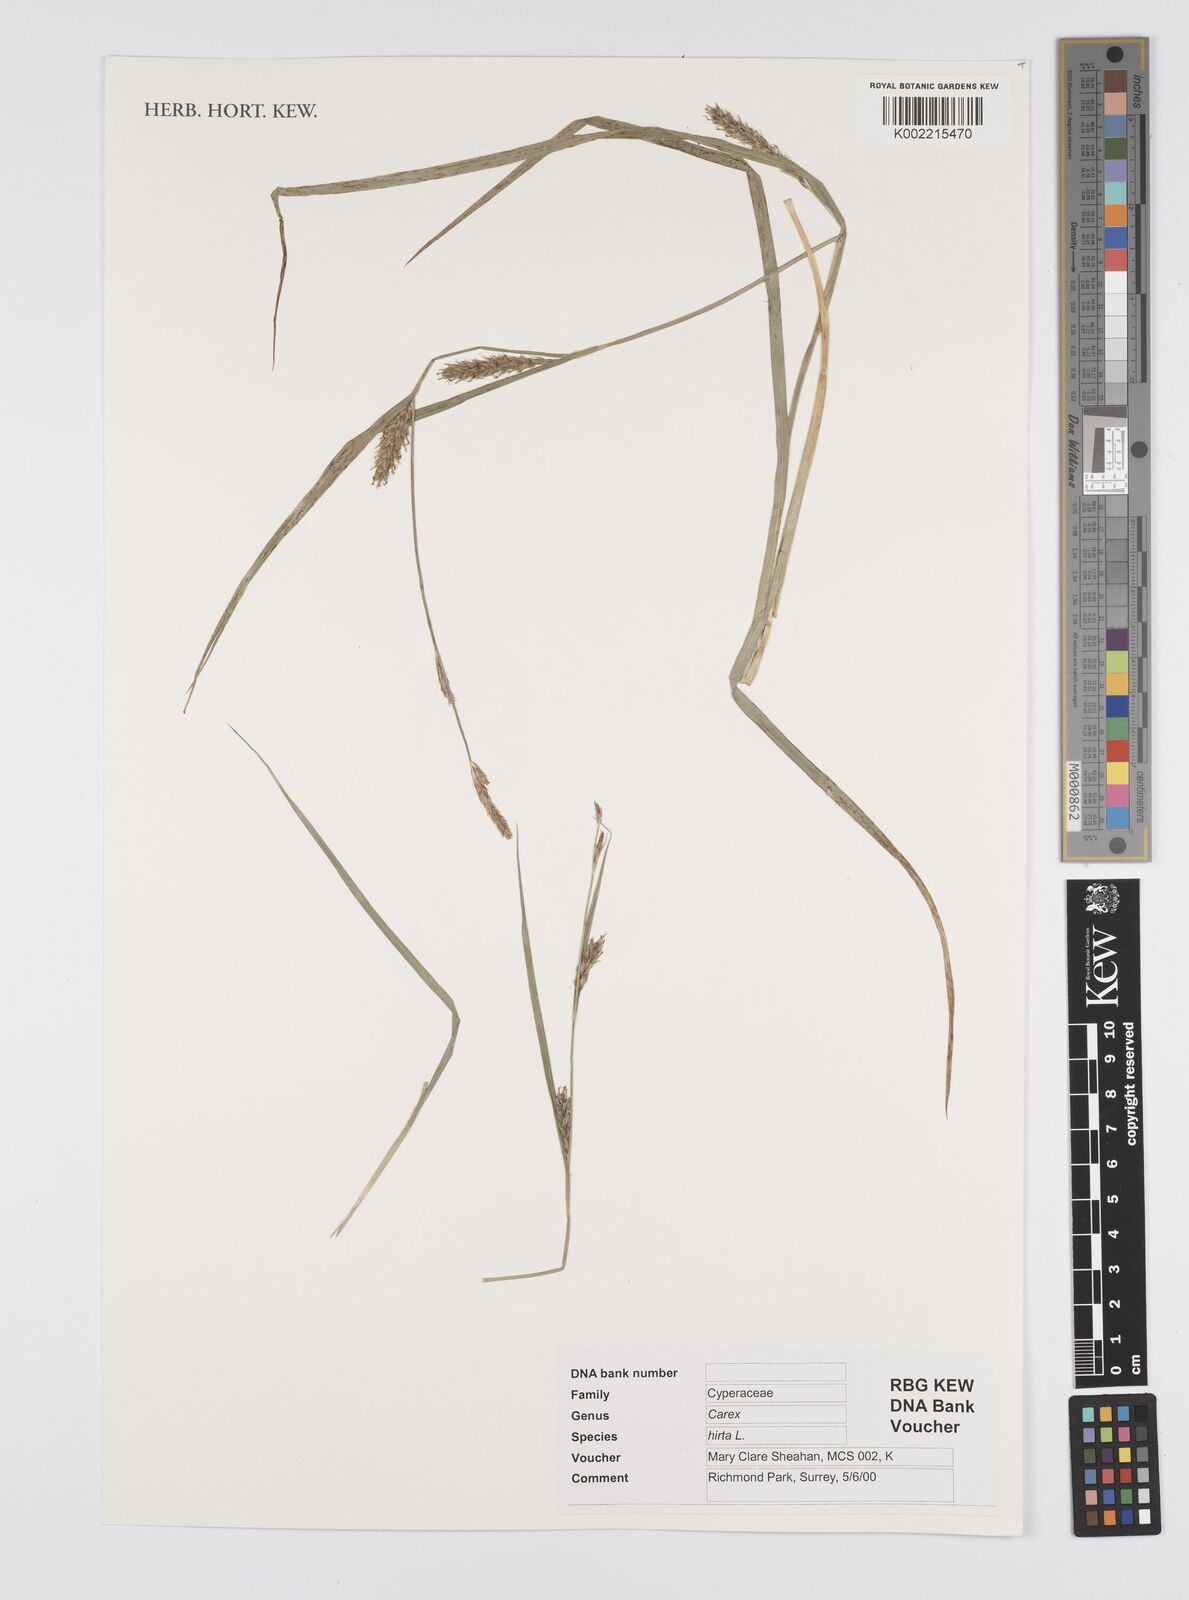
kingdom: Plantae
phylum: Tracheophyta
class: Liliopsida
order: Poales
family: Cyperaceae
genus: Carex
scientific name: Carex hirta
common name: Hairy sedge
